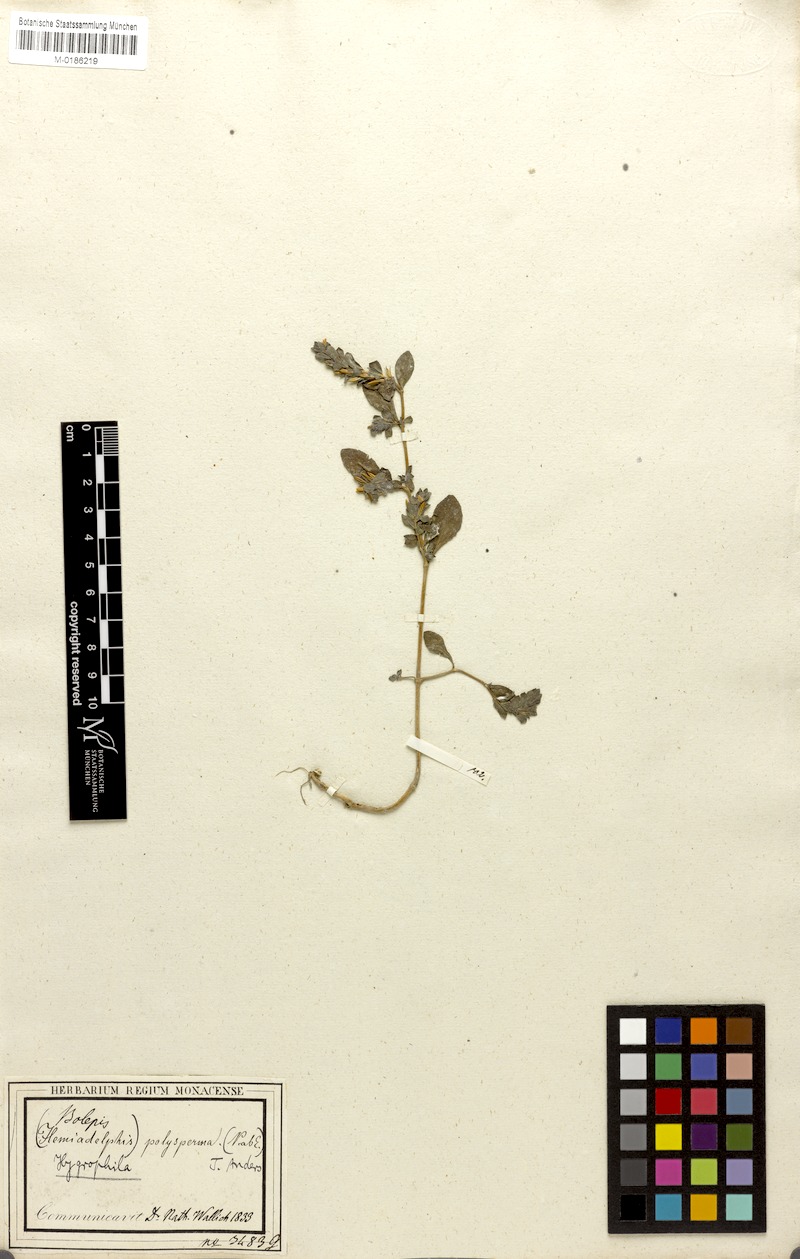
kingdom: Plantae
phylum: Tracheophyta
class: Magnoliopsida
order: Lamiales
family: Acanthaceae
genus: Hygrophila
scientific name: Hygrophila polysperma
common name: Indian swampweed
